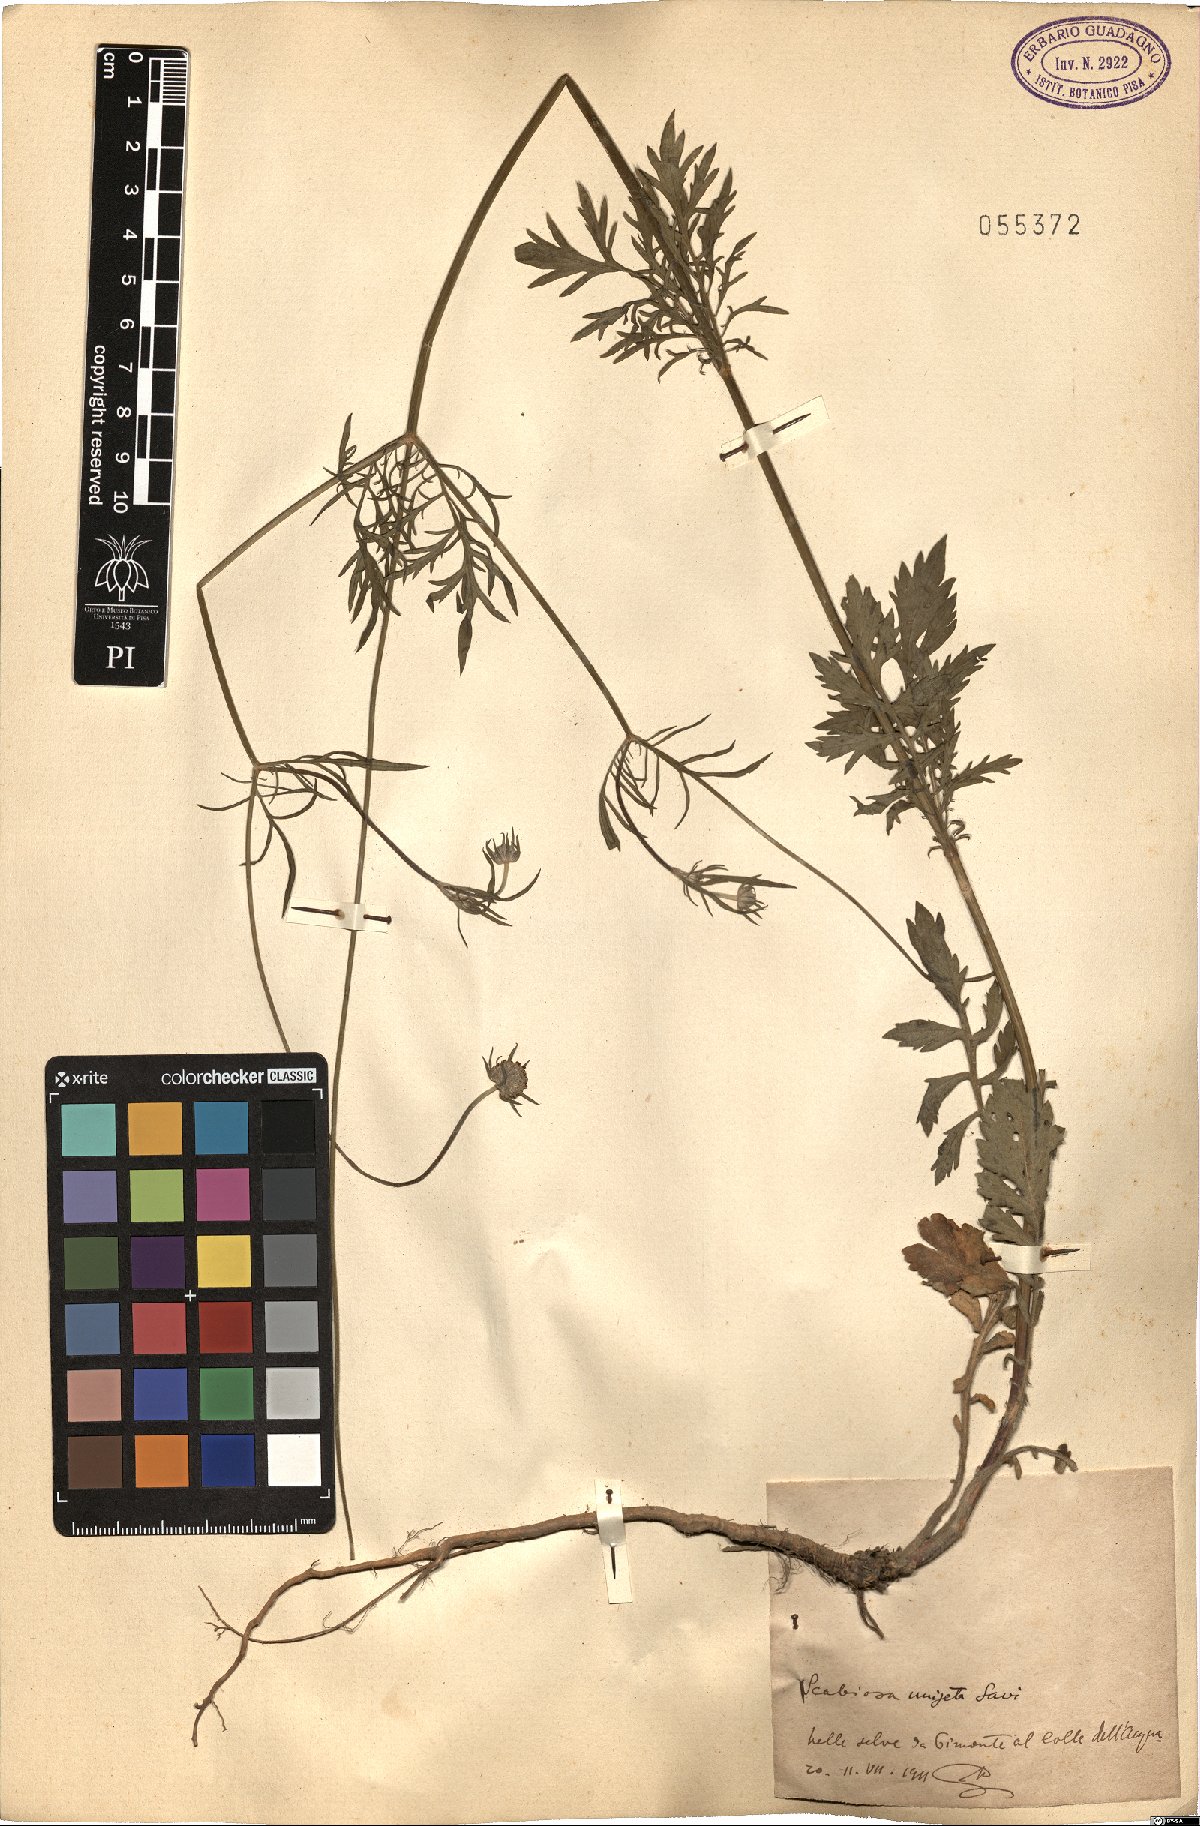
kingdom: Plantae
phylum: Tracheophyta
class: Magnoliopsida
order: Dipsacales
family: Caprifoliaceae
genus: Scabiosa
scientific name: Scabiosa columbaria
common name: Small scabious
